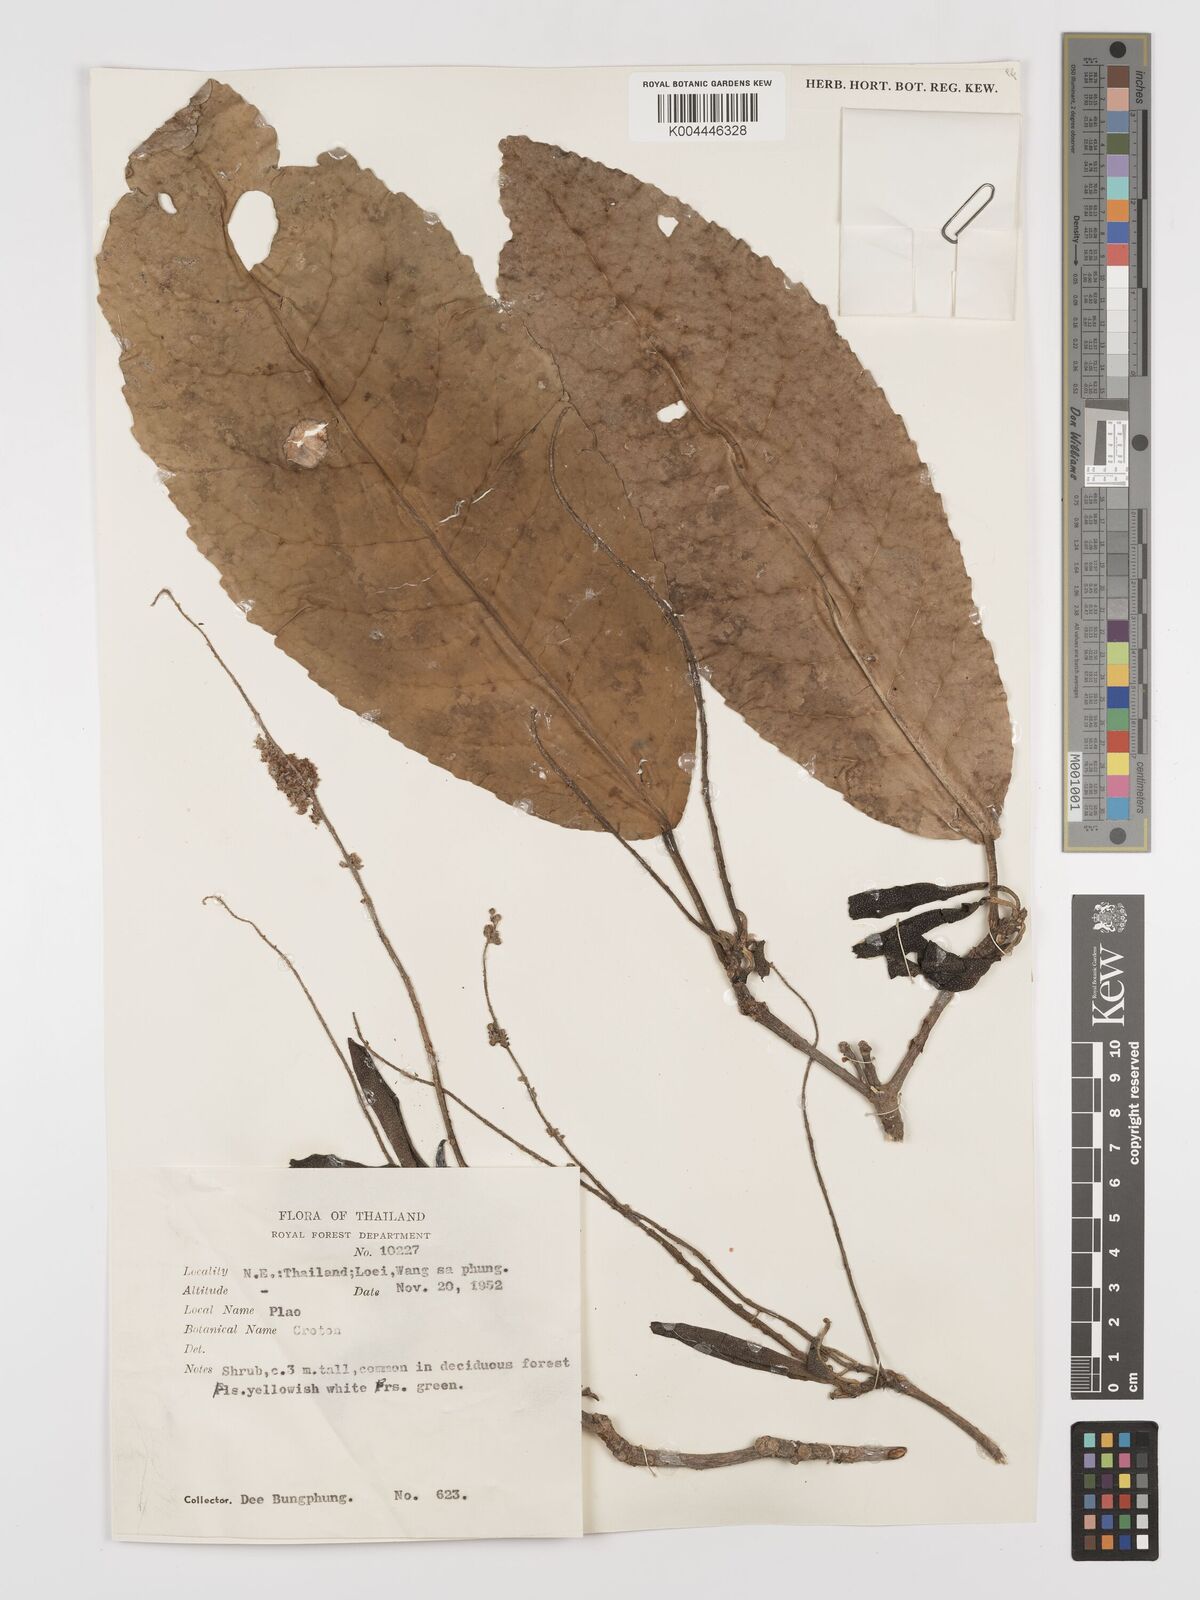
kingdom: Plantae
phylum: Tracheophyta
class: Magnoliopsida
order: Malpighiales
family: Euphorbiaceae
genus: Baliospermum
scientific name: Baliospermum solanifolium
